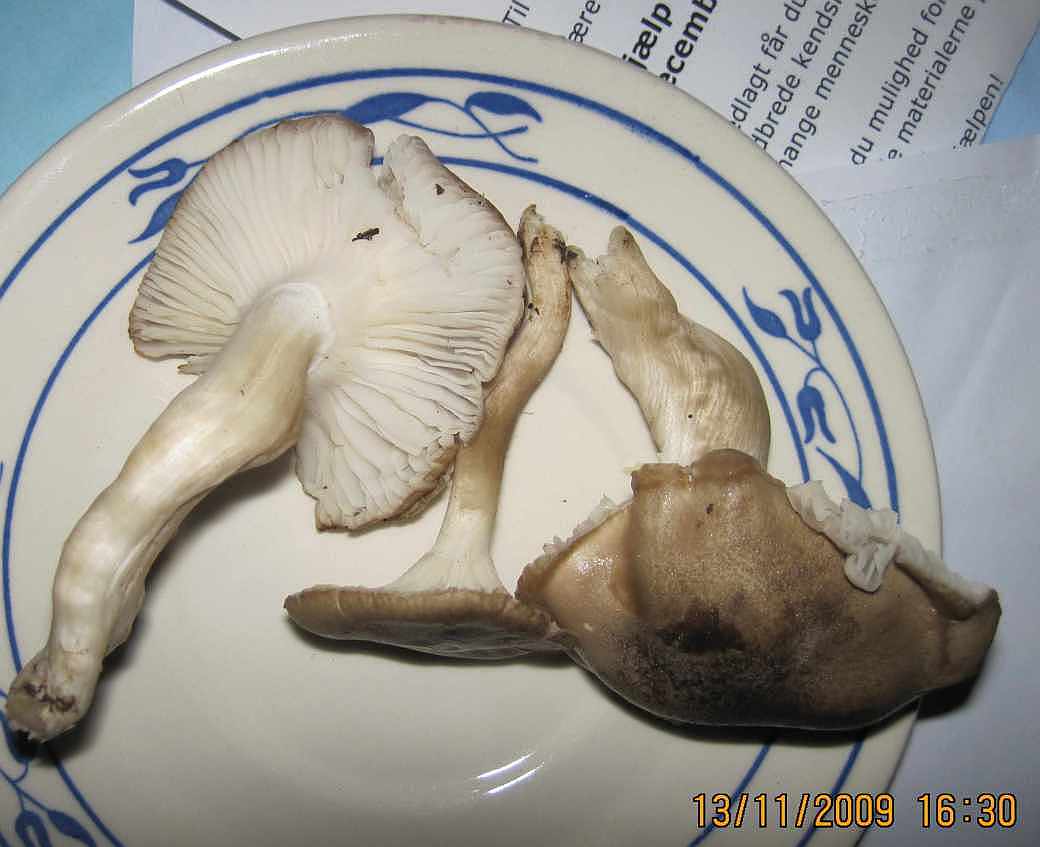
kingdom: Fungi
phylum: Basidiomycota
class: Agaricomycetes
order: Agaricales
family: Hygrophoraceae
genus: Hygrophorus
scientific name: Hygrophorus agathosmus
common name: vellugtende sneglehat
